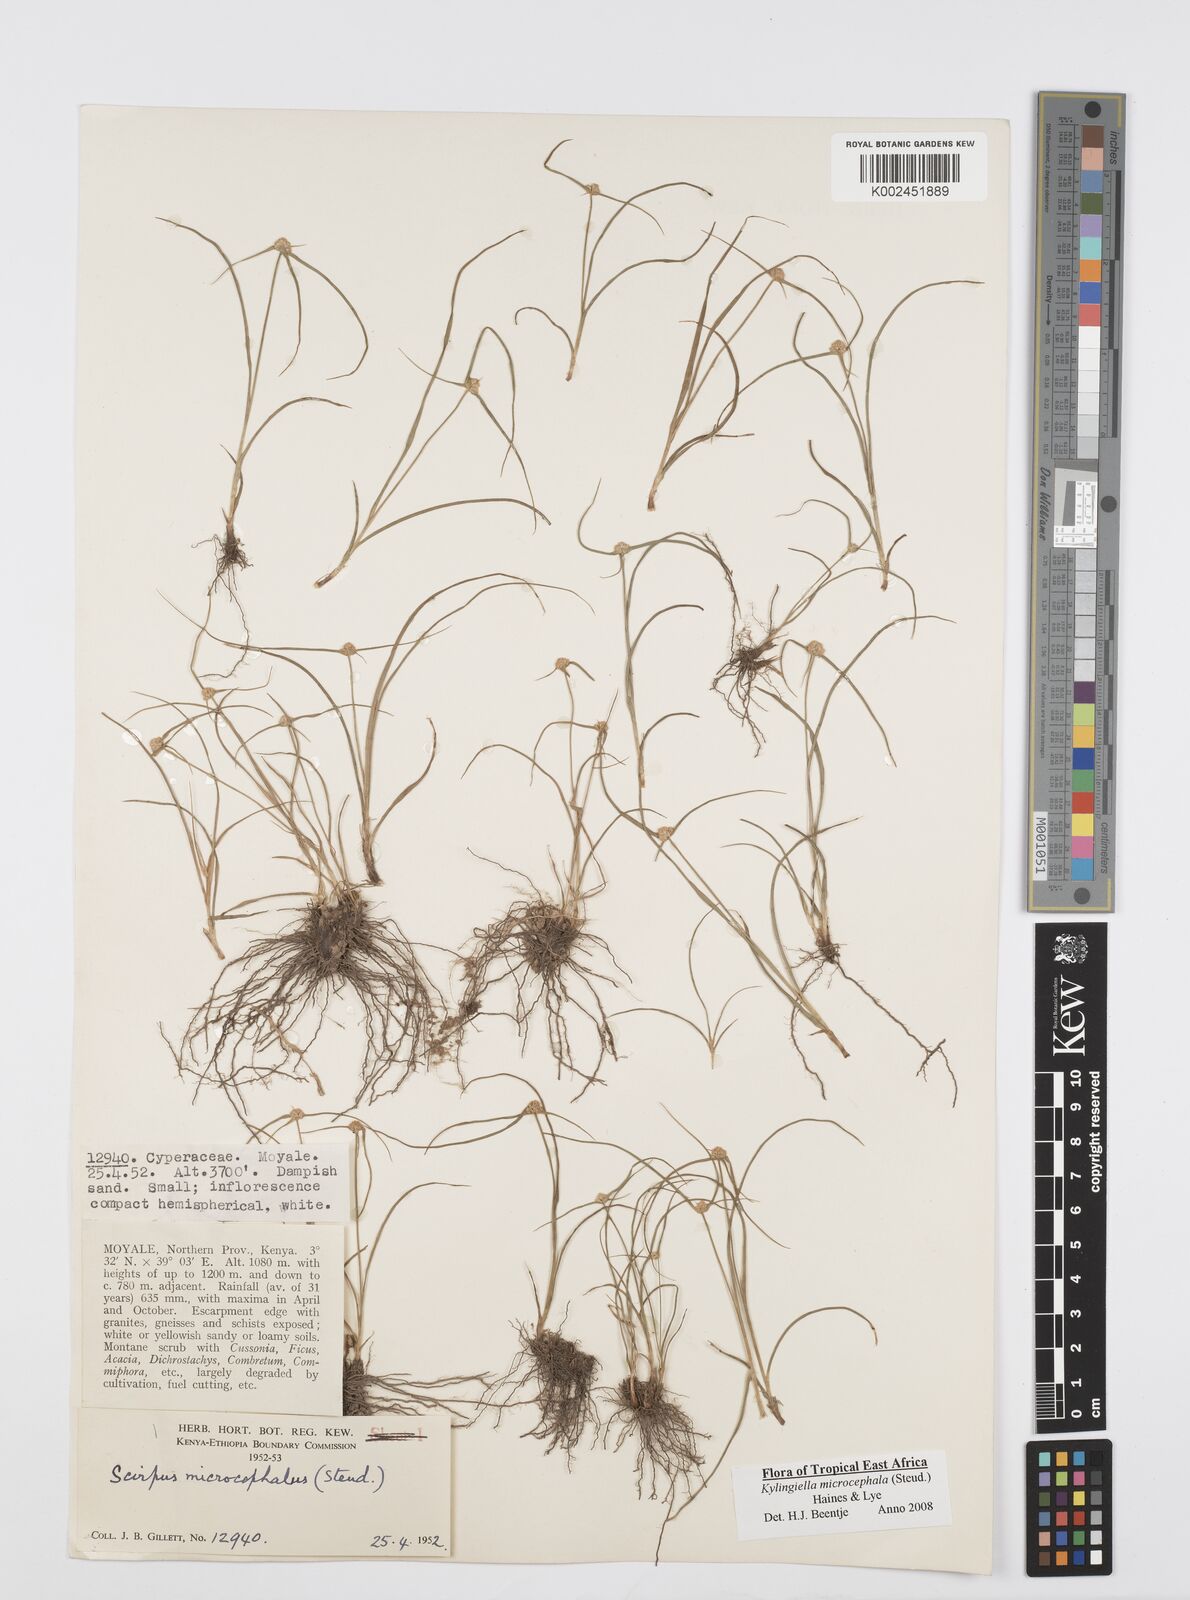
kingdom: Plantae
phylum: Tracheophyta
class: Liliopsida
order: Poales
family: Cyperaceae
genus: Cyperus
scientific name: Cyperus microcephalus
